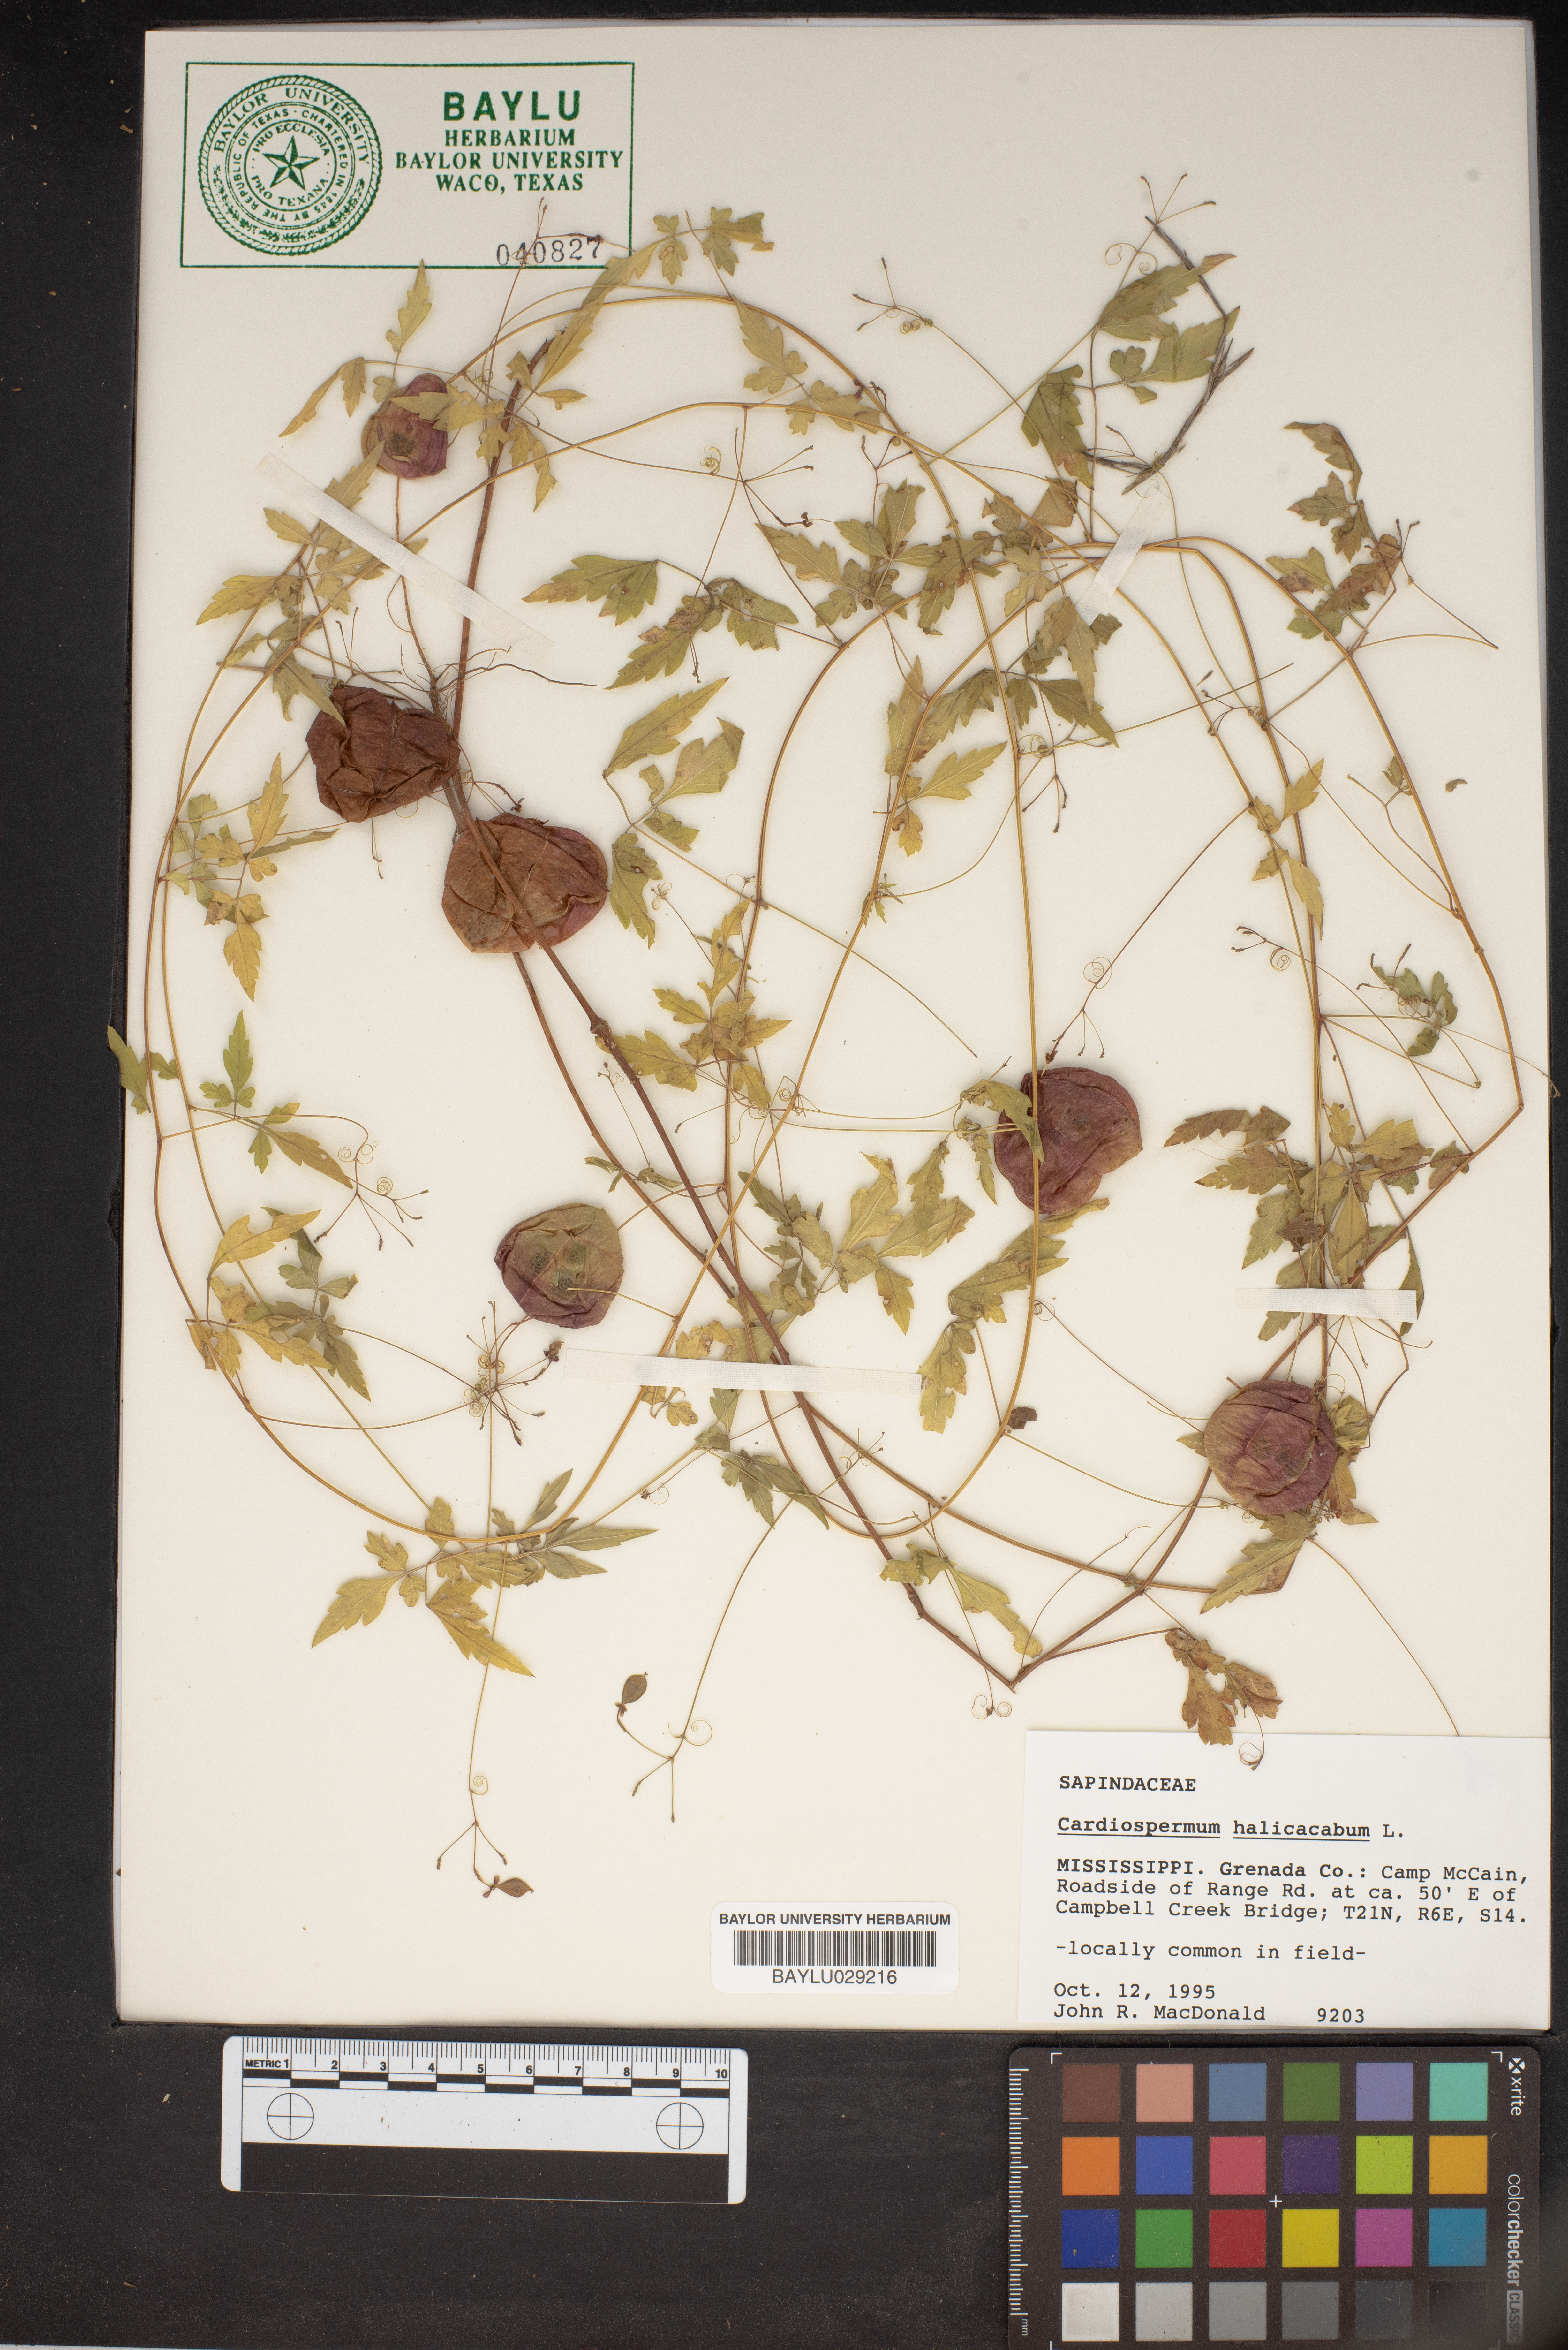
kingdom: Plantae
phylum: Tracheophyta
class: Magnoliopsida
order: Sapindales
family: Sapindaceae
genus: Cardiospermum
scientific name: Cardiospermum halicacabum
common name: Balloon vine
